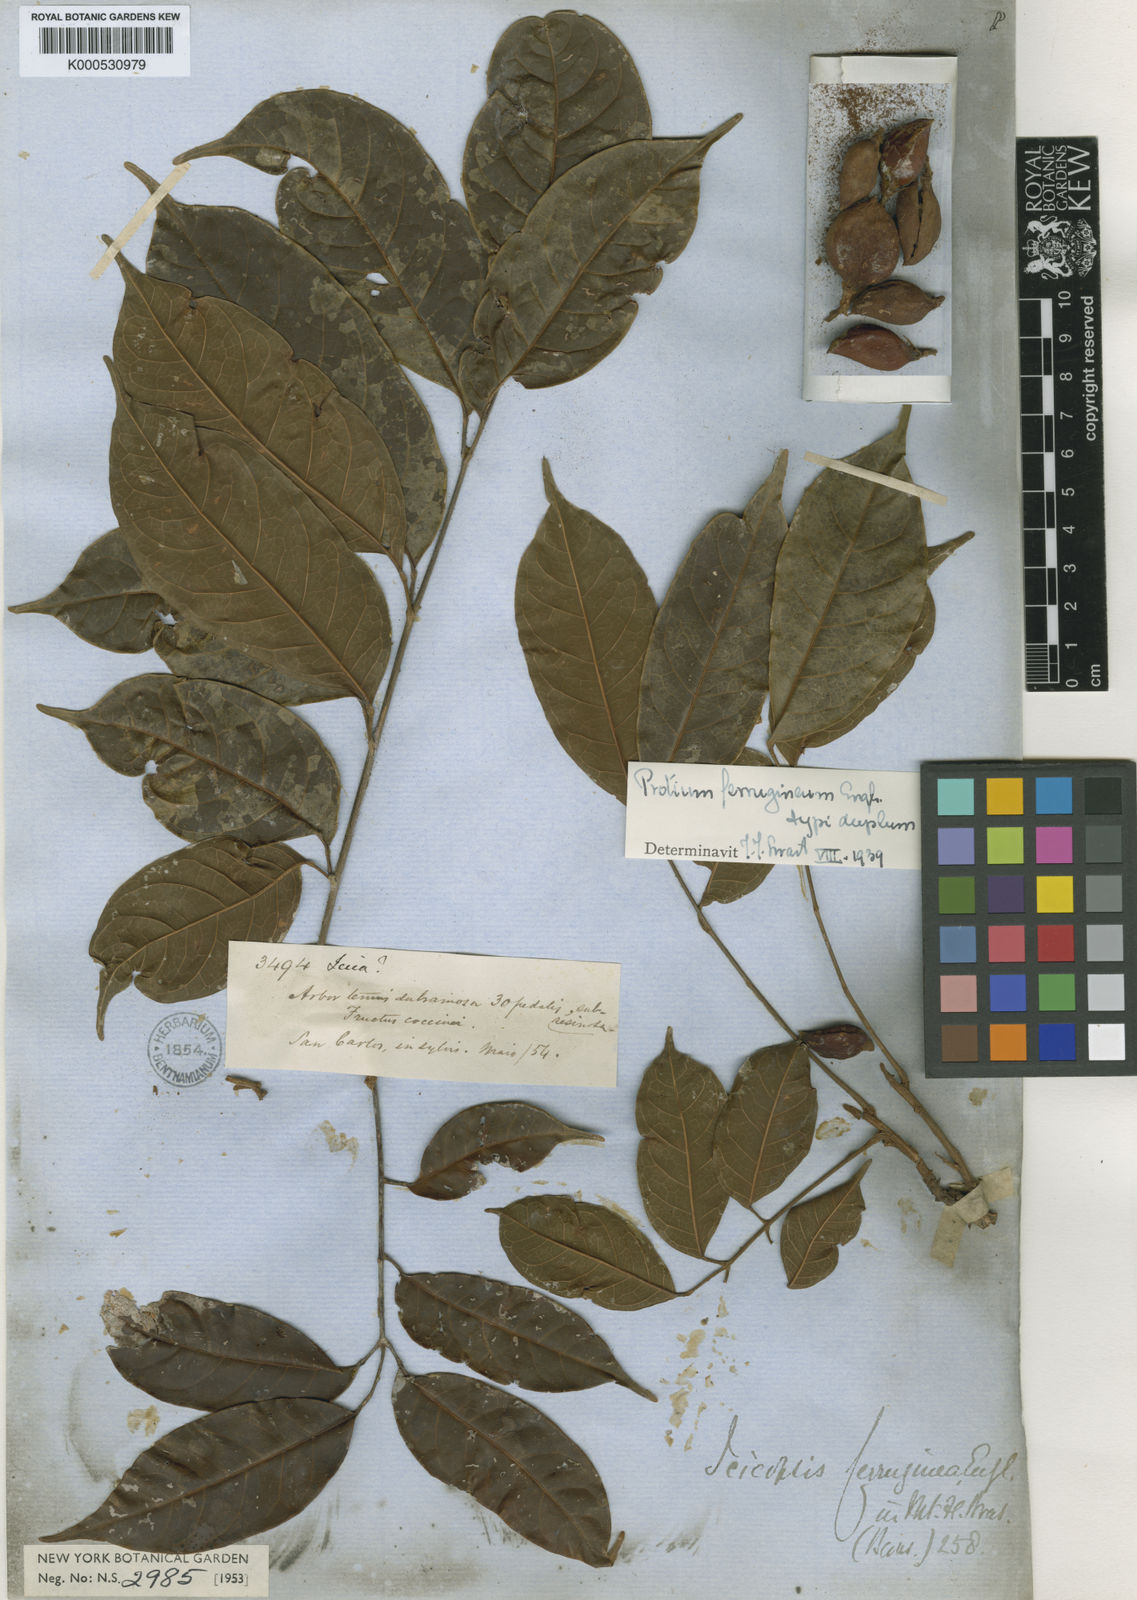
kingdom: Plantae
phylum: Tracheophyta
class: Magnoliopsida
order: Sapindales
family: Burseraceae
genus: Protium
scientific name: Protium ferrugineum
